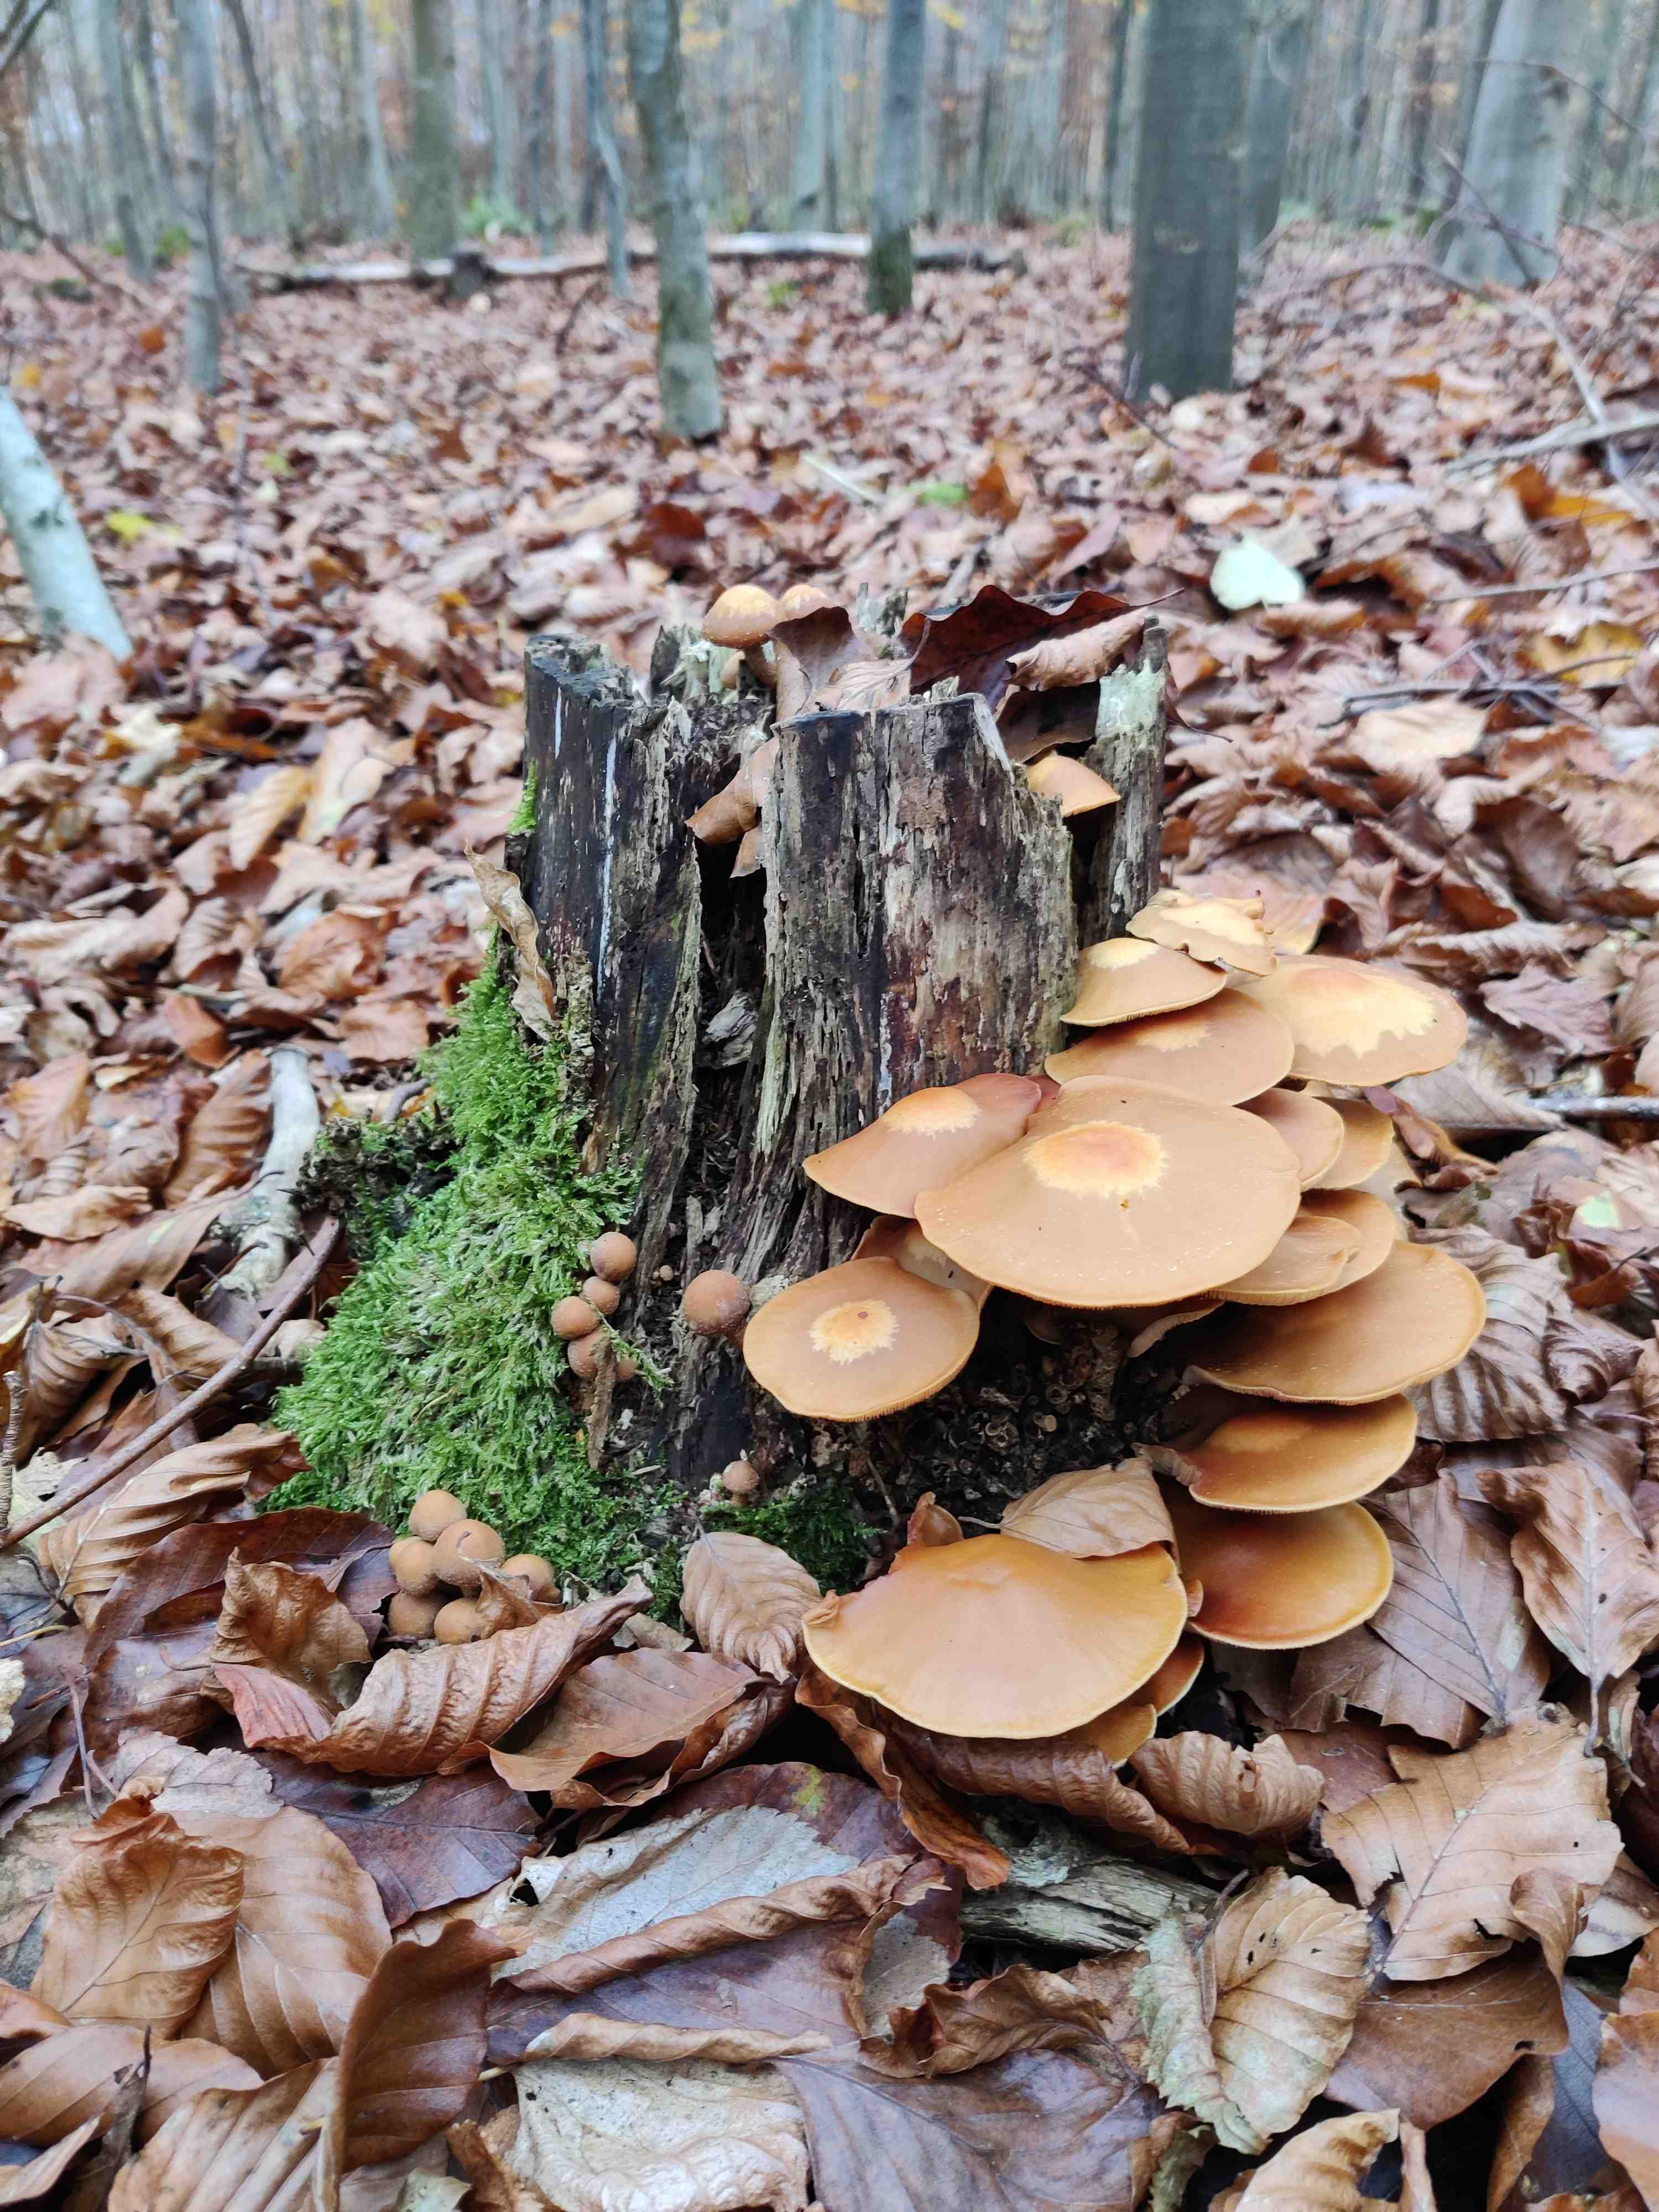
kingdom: Fungi
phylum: Basidiomycota
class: Agaricomycetes
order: Agaricales
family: Strophariaceae
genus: Kuehneromyces
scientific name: Kuehneromyces mutabilis
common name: foranderlig skælhat
